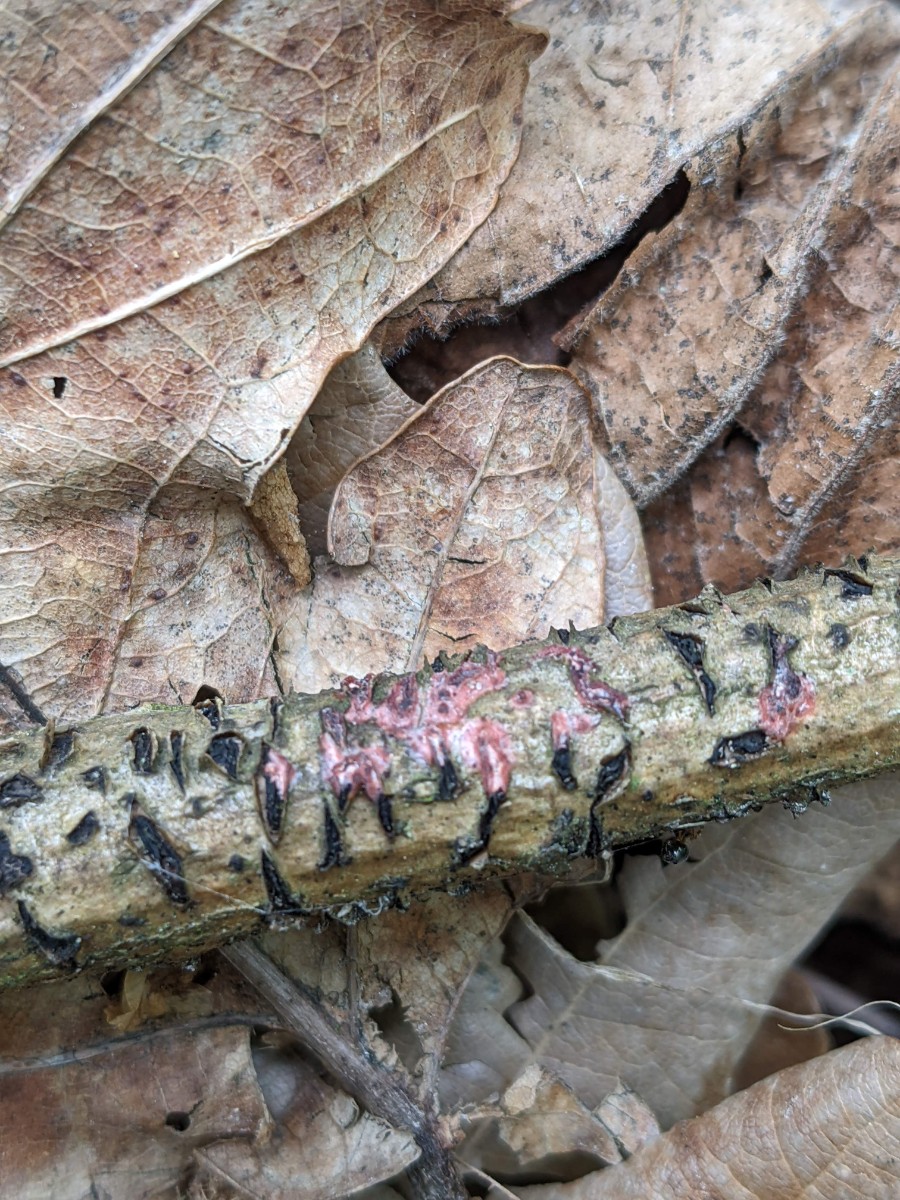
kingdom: Fungi
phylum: Basidiomycota
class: Agaricomycetes
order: Corticiales
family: Corticiaceae
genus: Marchandiomyces
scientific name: Marchandiomyces aurantioroseus
